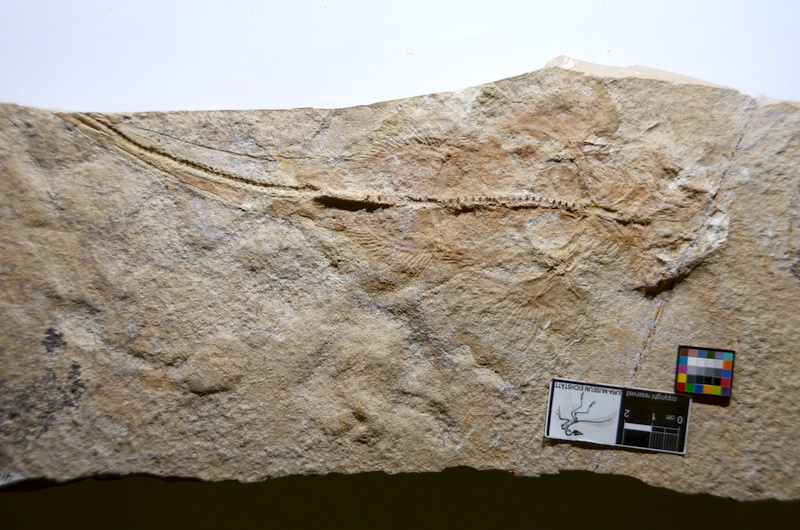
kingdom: Animalia
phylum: Chordata
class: Elasmobranchii
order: Squatiniformes
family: Pseudorhinidae
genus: Pseudorhina
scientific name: Pseudorhina alifera
